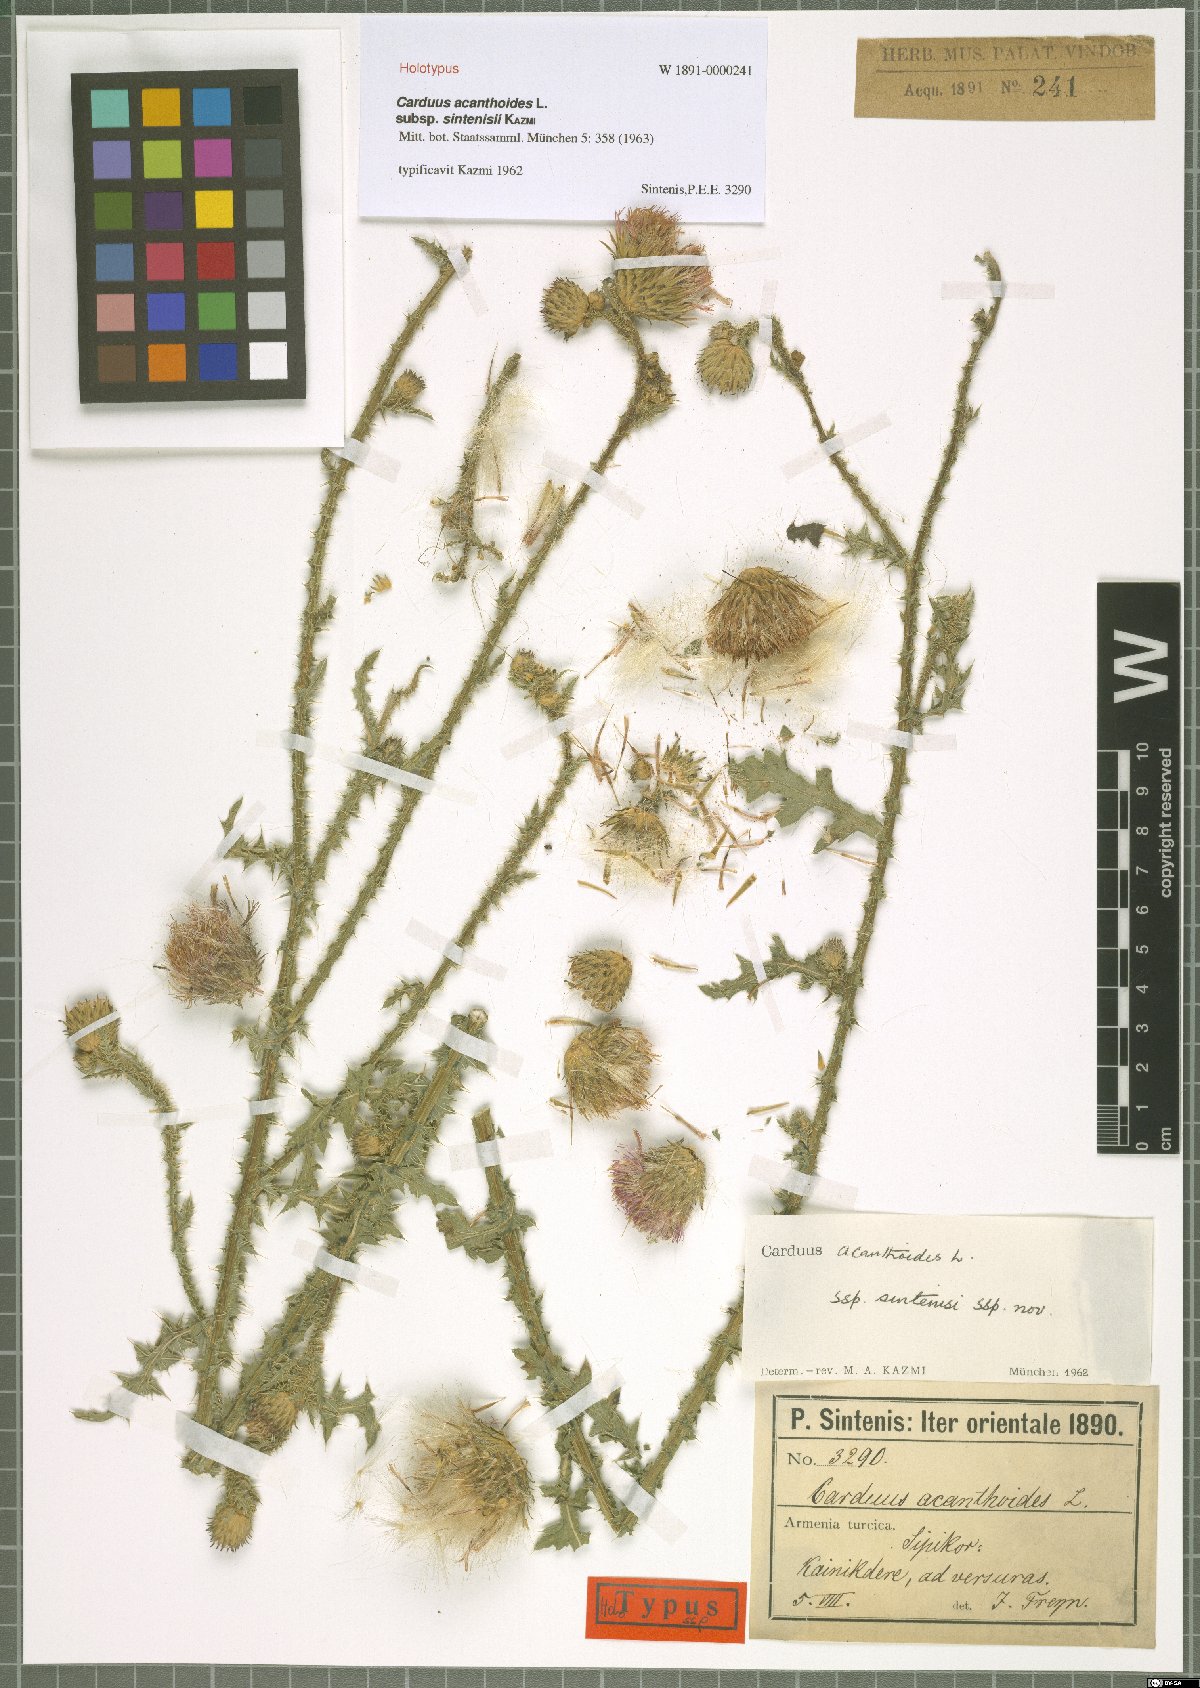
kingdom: Plantae
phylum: Tracheophyta
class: Magnoliopsida
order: Asterales
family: Asteraceae
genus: Carduus
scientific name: Carduus acanthoides
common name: Plumeless thistle
